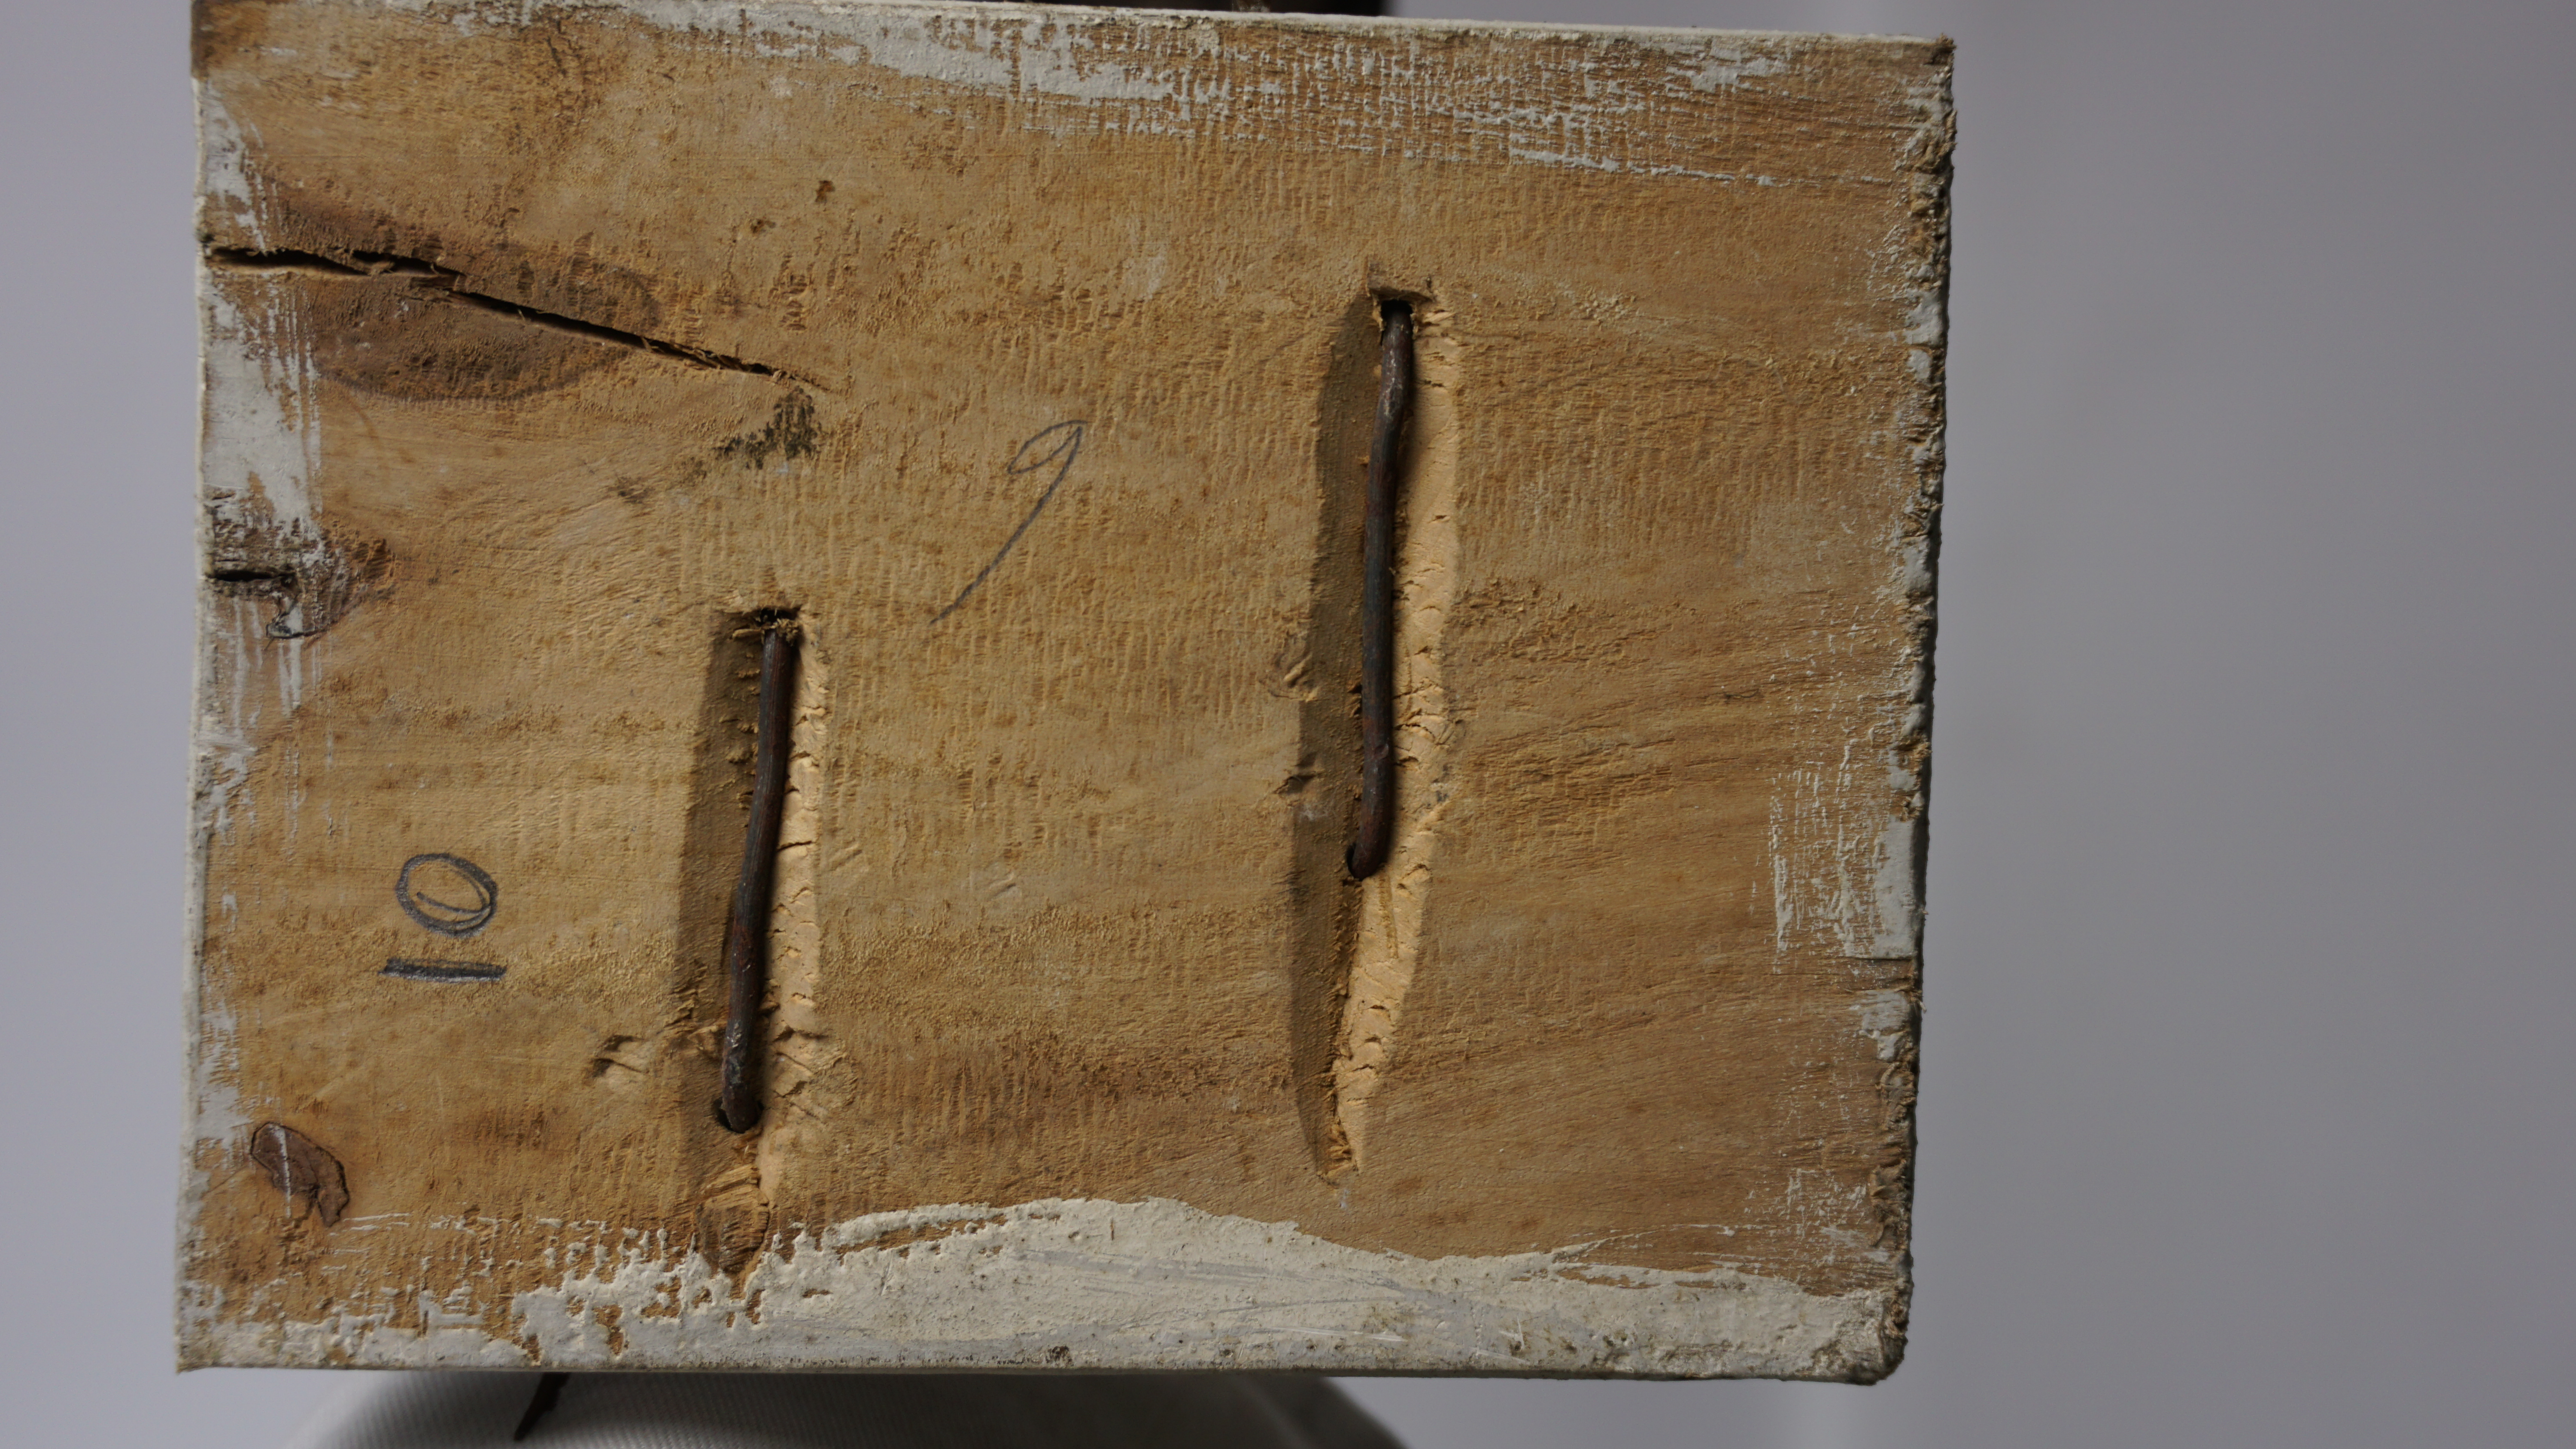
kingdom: Animalia
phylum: Chordata
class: Aves
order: Pelecaniformes
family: Ardeidae
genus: Egretta
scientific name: Egretta caerulea
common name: Little blue heron
